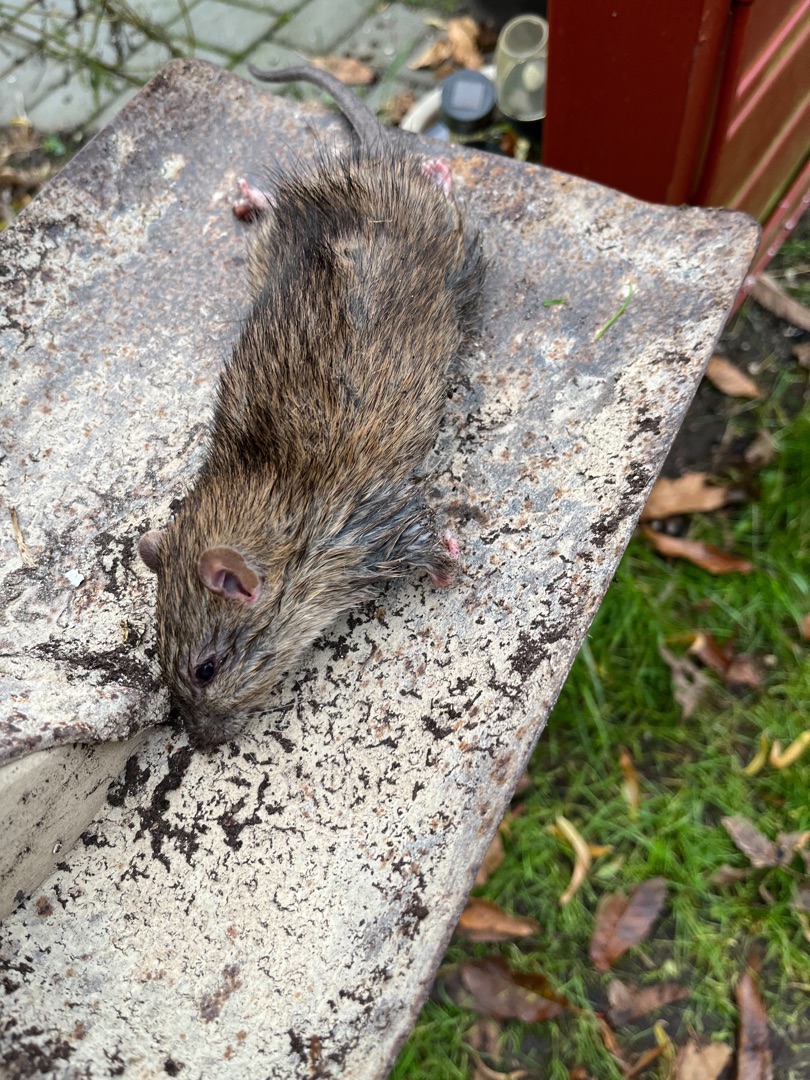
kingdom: Animalia
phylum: Chordata
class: Mammalia
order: Rodentia
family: Muridae
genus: Rattus
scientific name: Rattus norvegicus
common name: Brun rotte
